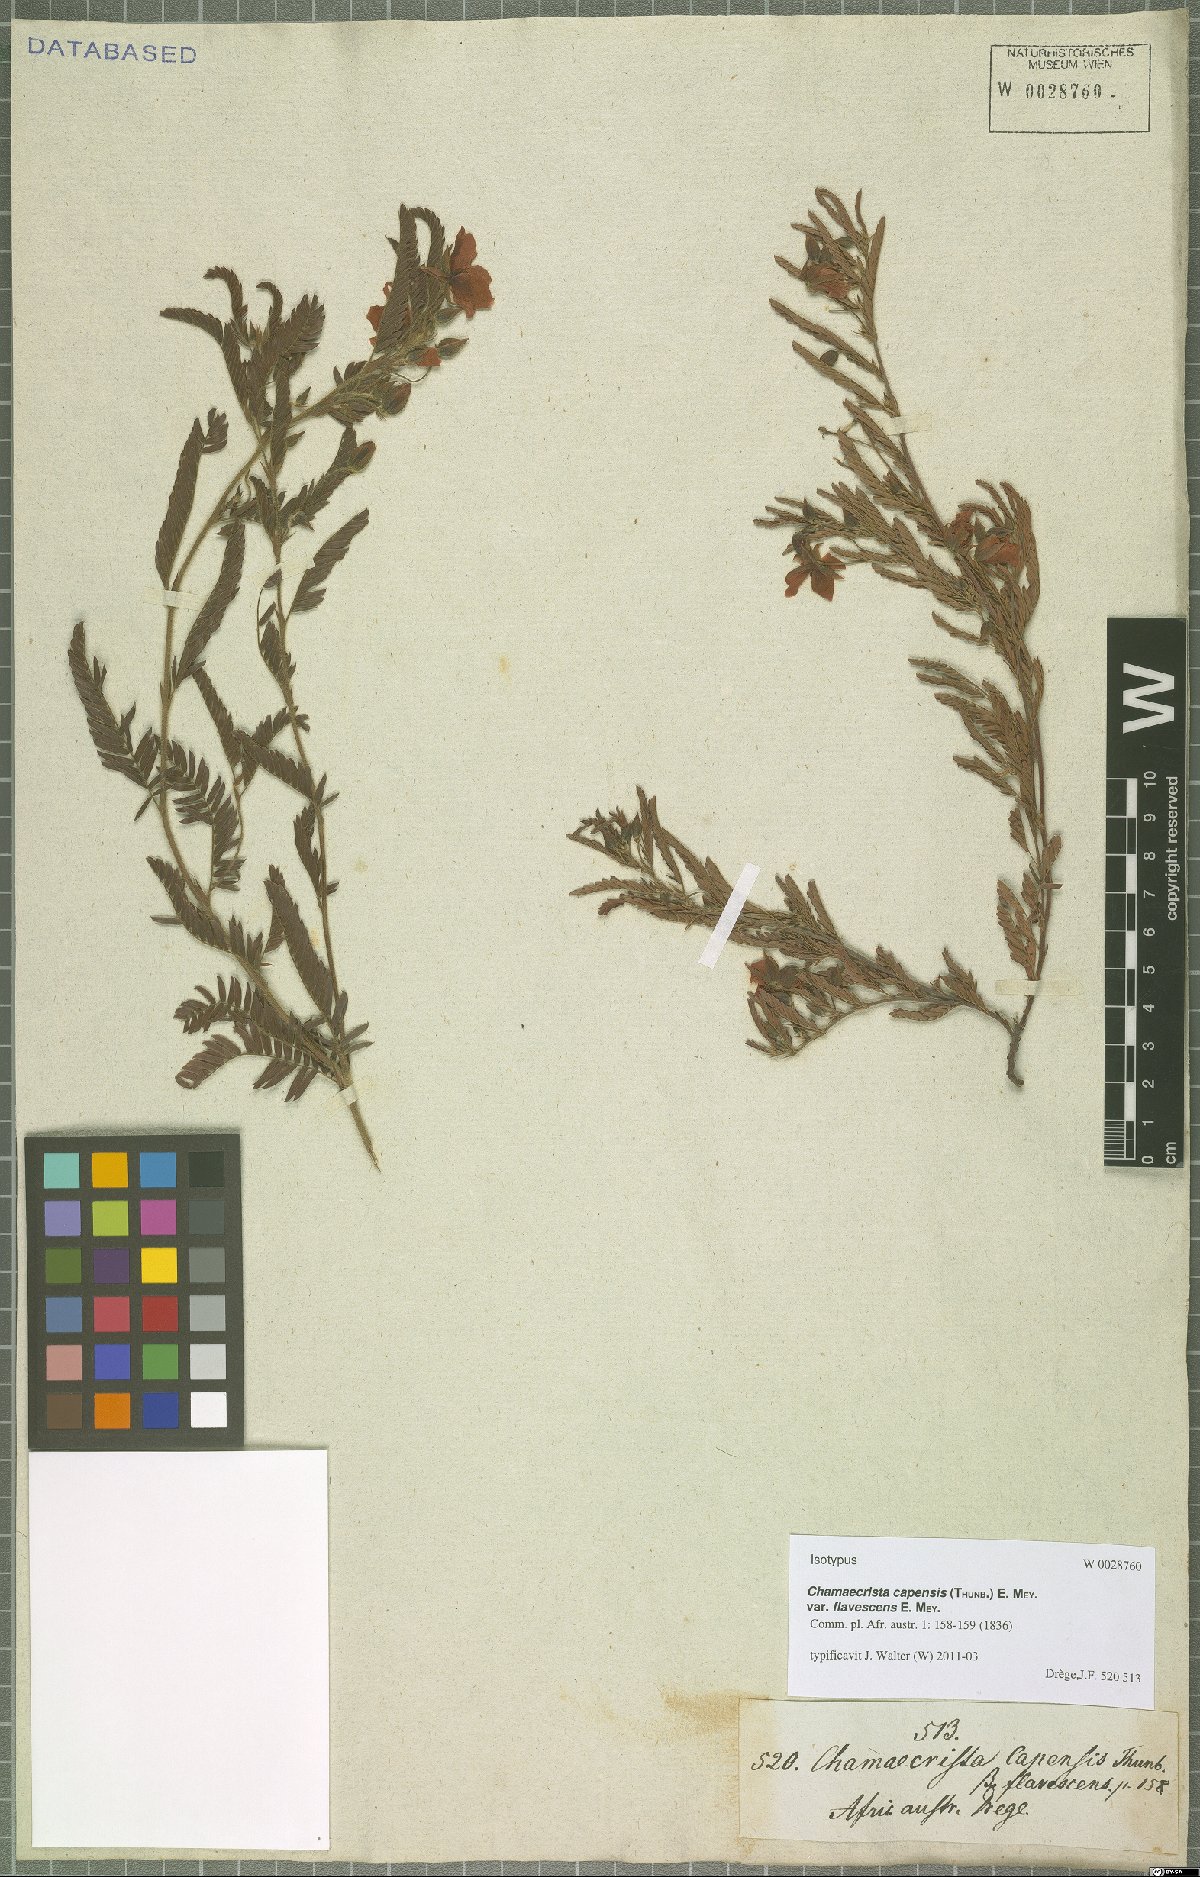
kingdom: Plantae
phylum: Tracheophyta
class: Magnoliopsida
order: Fabales
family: Fabaceae
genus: Chamaecrista
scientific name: Chamaecrista capensis
